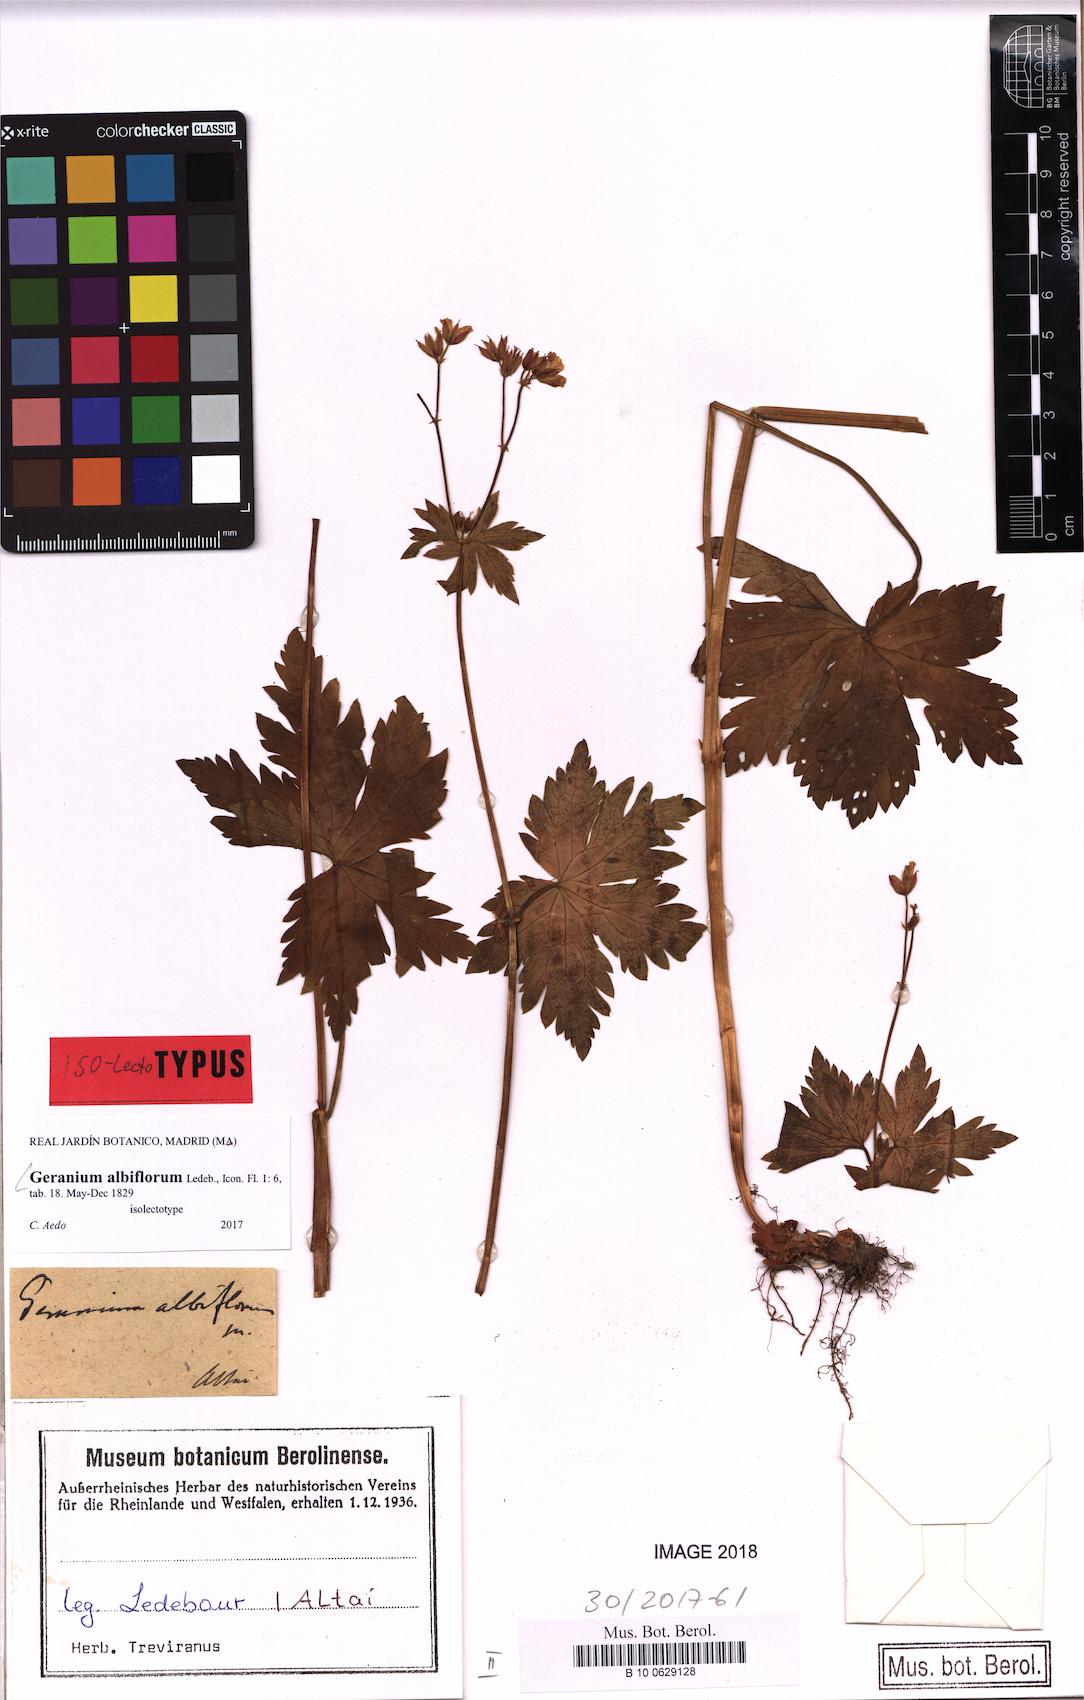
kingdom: Plantae
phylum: Tracheophyta
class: Magnoliopsida
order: Geraniales
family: Geraniaceae
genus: Geranium
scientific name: Geranium albiflorum
